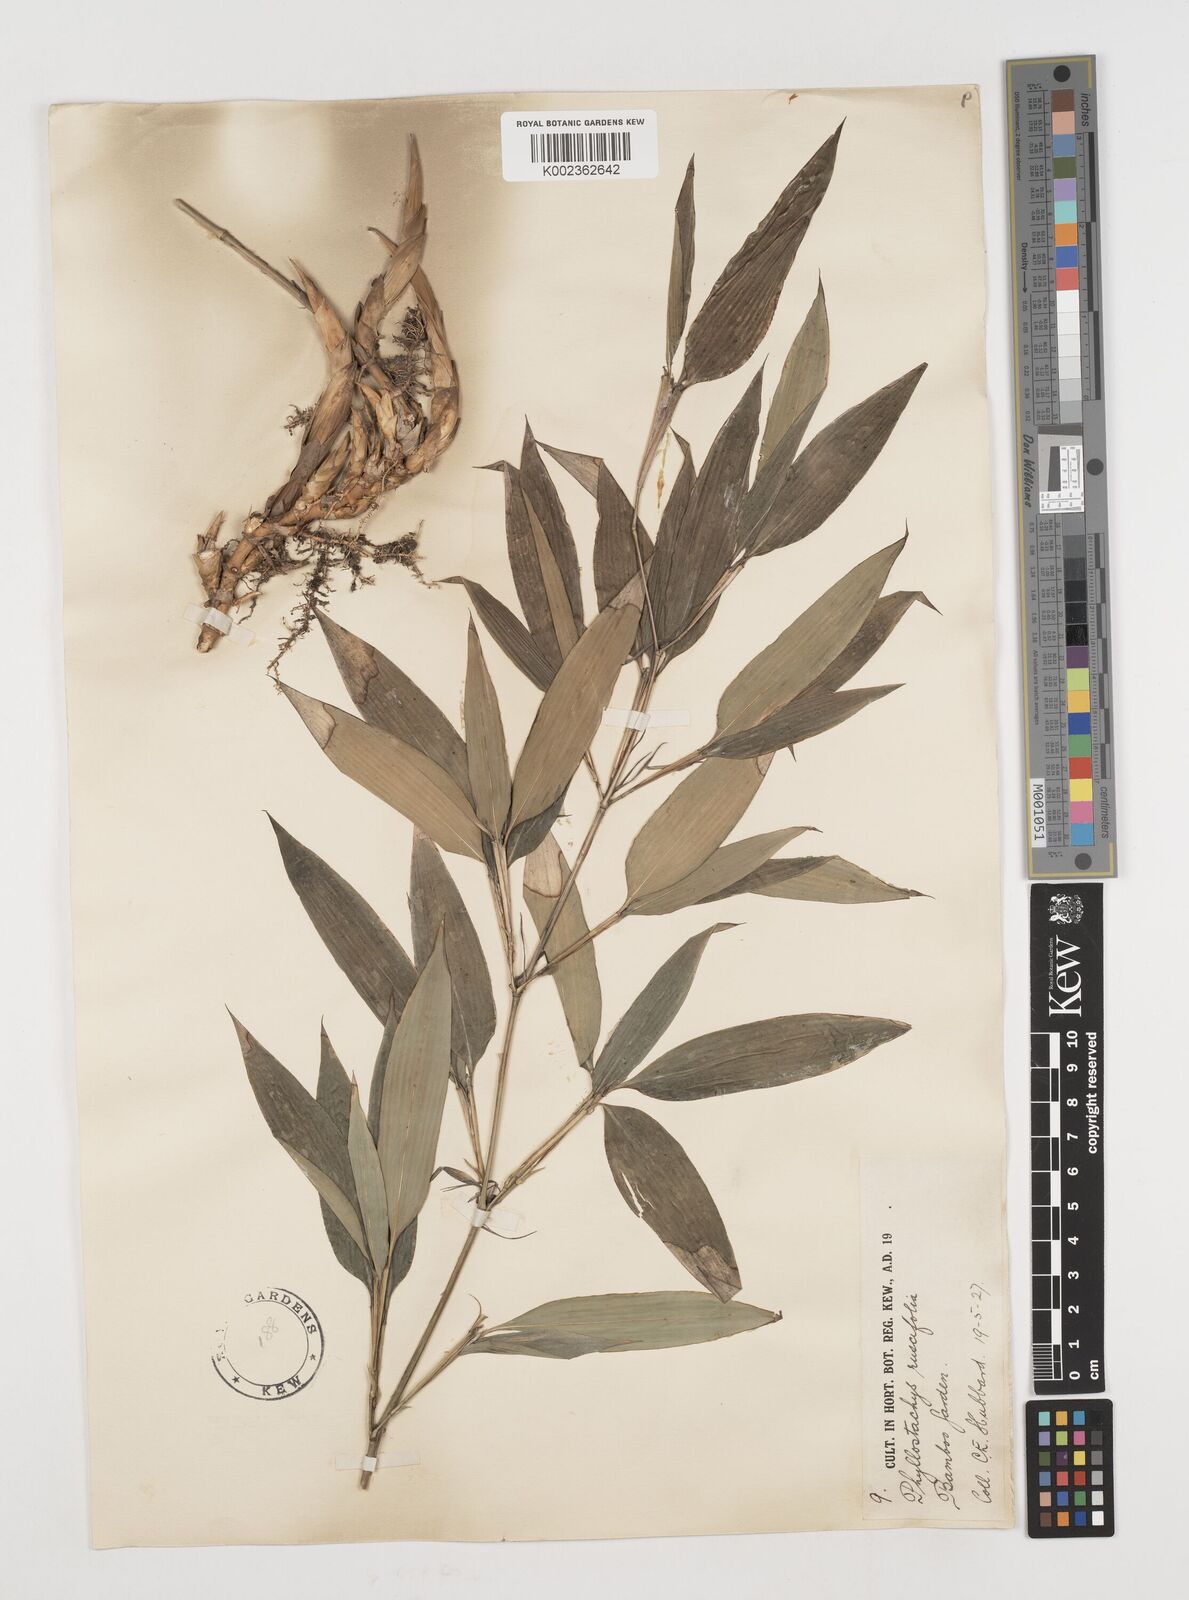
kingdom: Plantae
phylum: Tracheophyta
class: Liliopsida
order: Poales
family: Poaceae
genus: Shibataea
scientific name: Shibataea kumasasa
